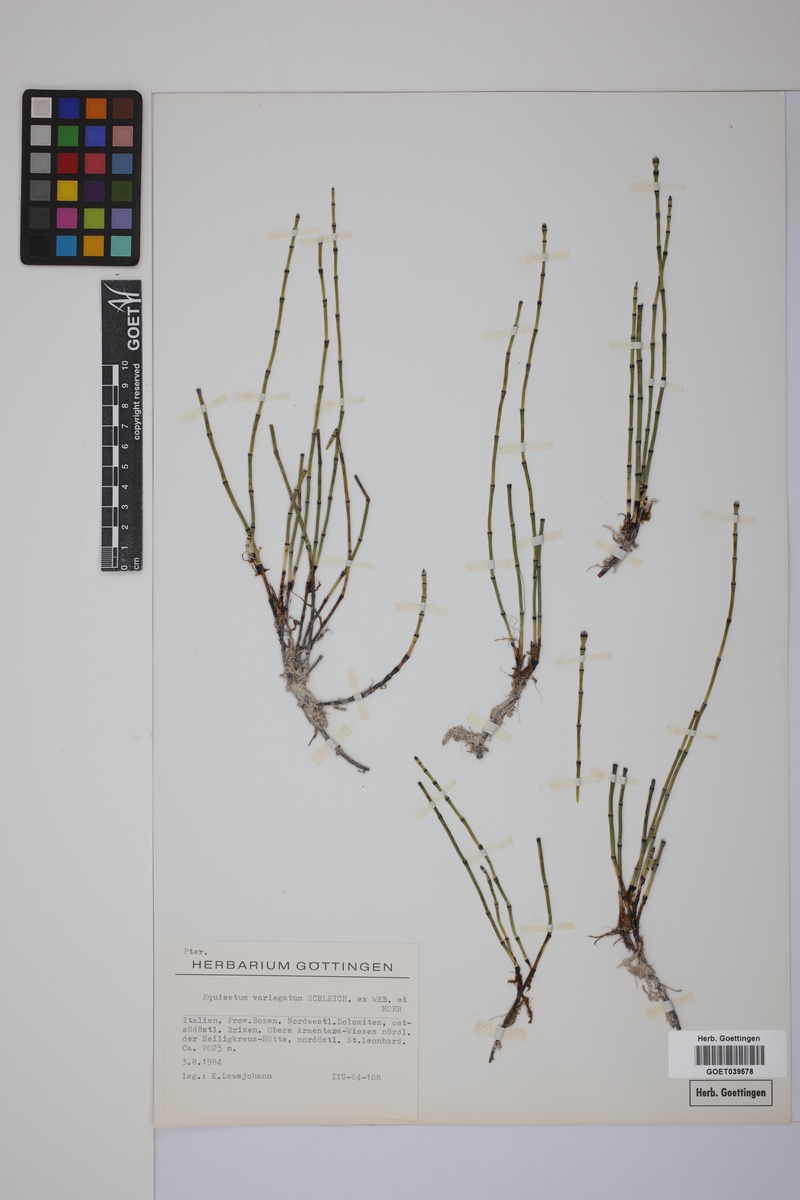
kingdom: Plantae
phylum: Tracheophyta
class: Polypodiopsida
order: Equisetales
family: Equisetaceae
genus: Equisetum
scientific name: Equisetum variegatum
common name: Variegated horsetail
